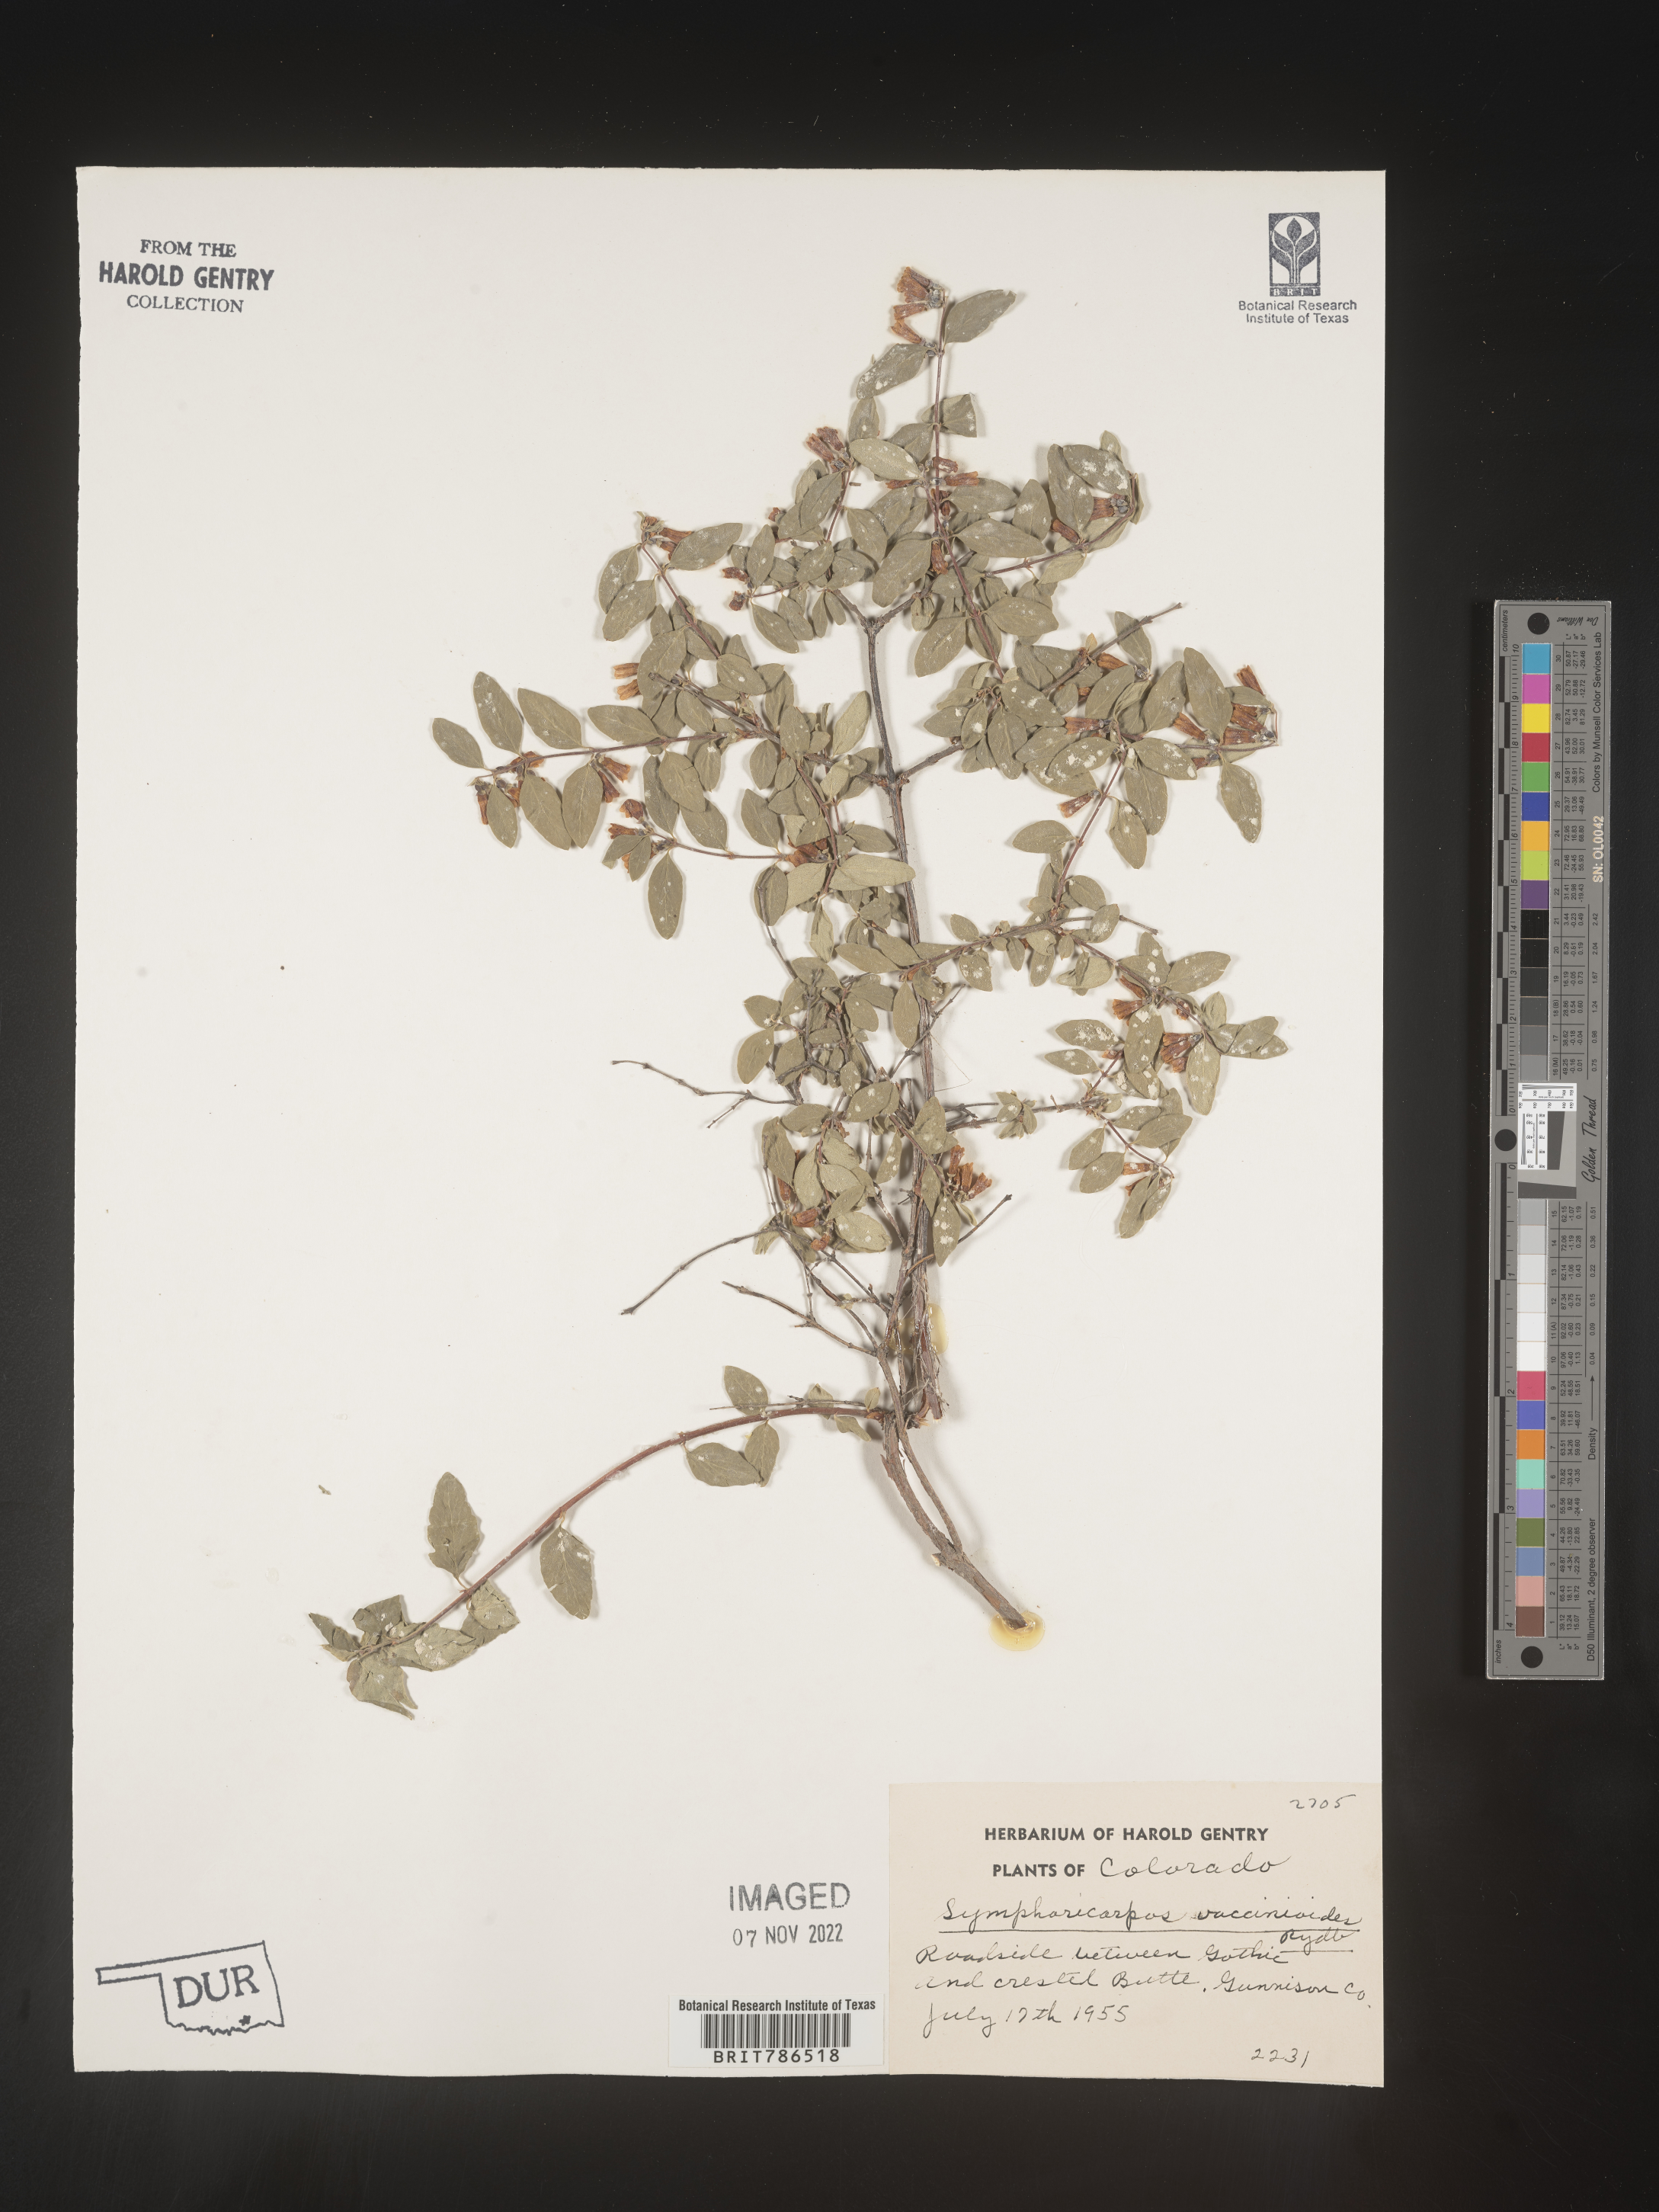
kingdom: Plantae
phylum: Tracheophyta
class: Magnoliopsida
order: Dipsacales
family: Caprifoliaceae
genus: Symphoricarpos
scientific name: Symphoricarpos
